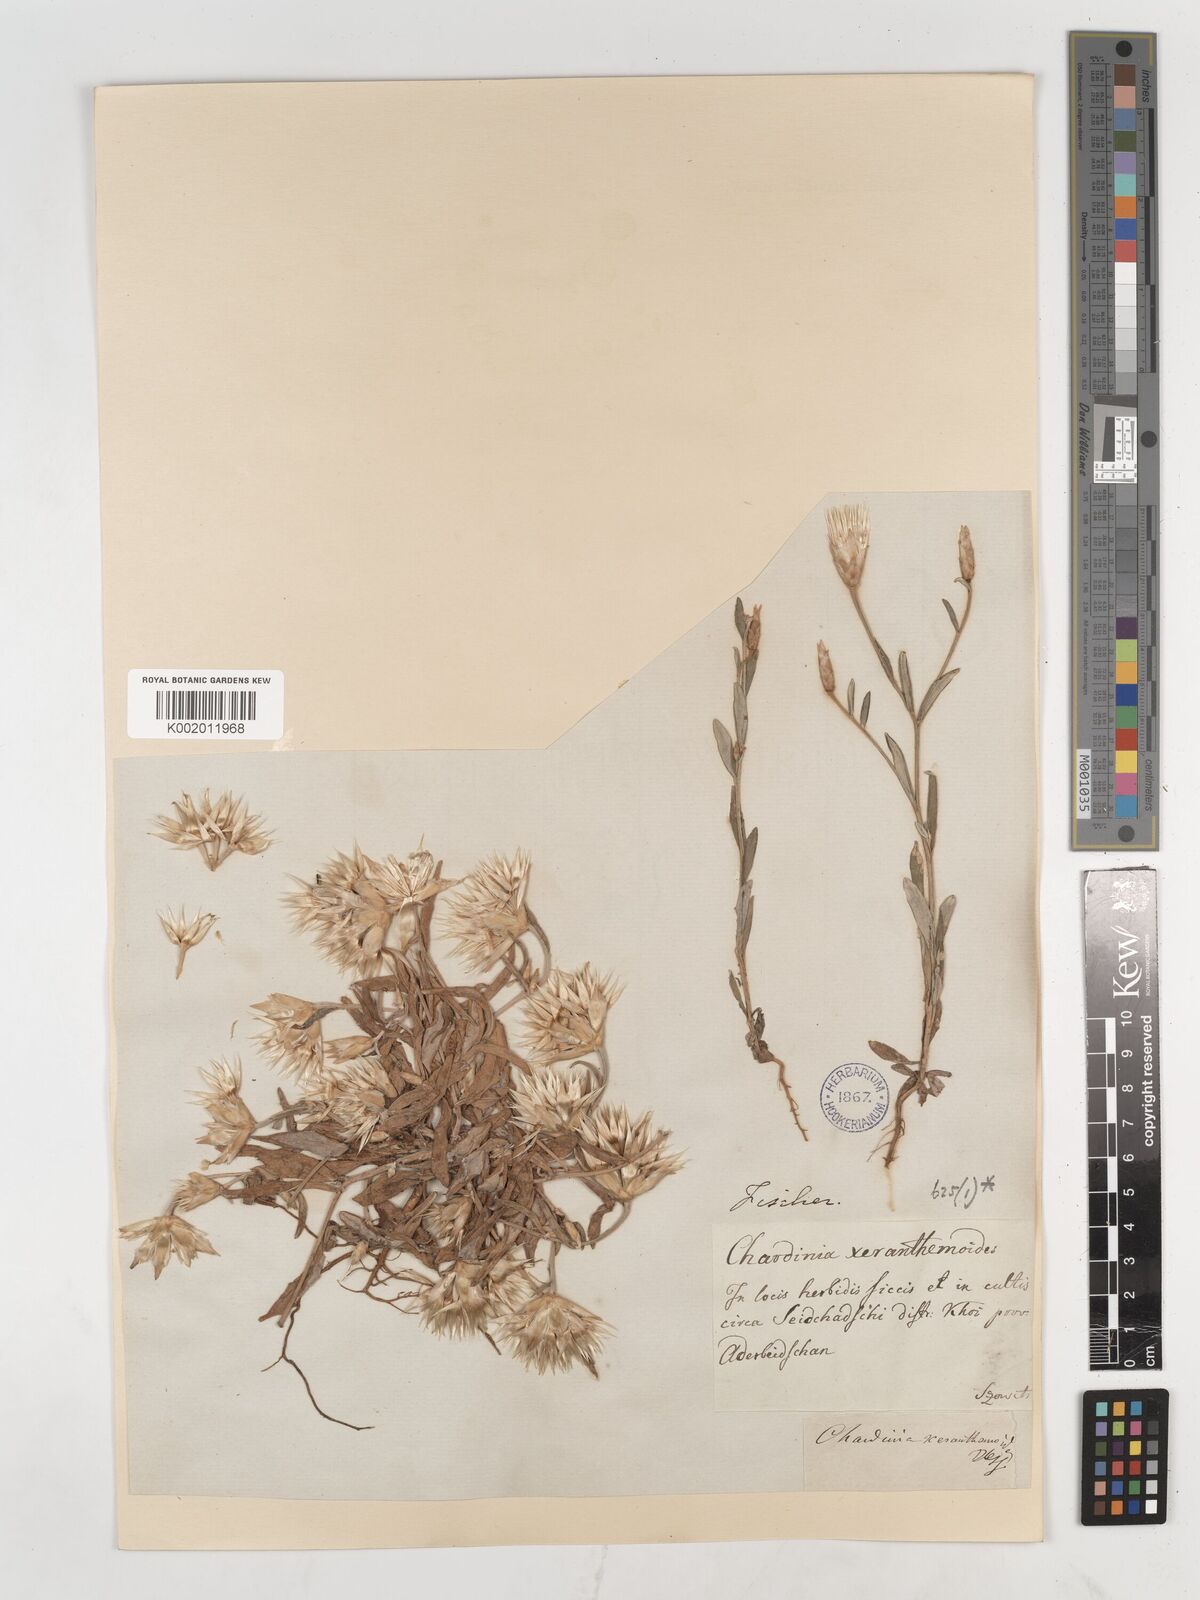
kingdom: Plantae
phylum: Tracheophyta
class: Magnoliopsida
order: Asterales
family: Asteraceae
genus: Chardinia
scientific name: Chardinia orientalis
